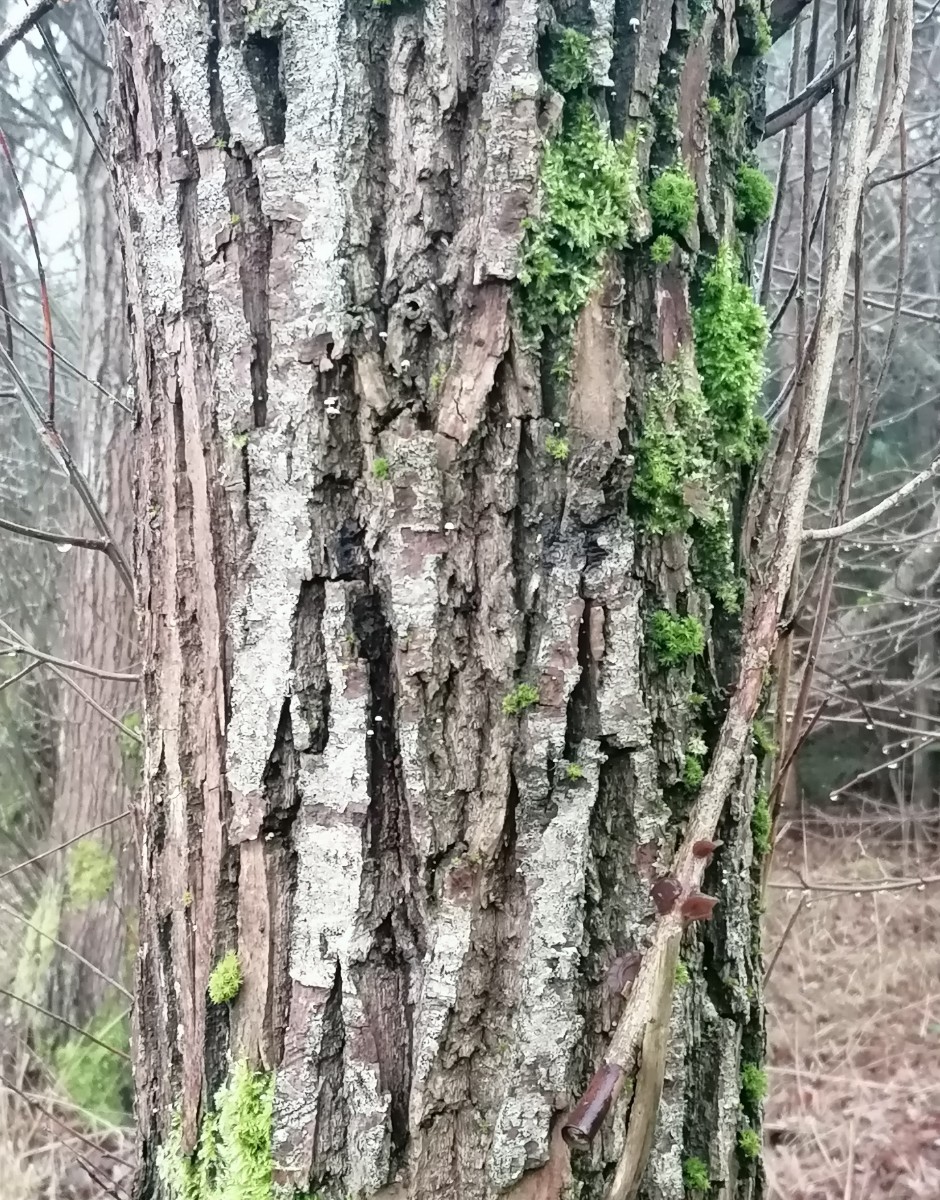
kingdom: Fungi
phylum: Basidiomycota
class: Agaricomycetes
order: Agaricales
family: Mycenaceae
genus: Mycena
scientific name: Mycena clavularis
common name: dunskivet huesvamp
